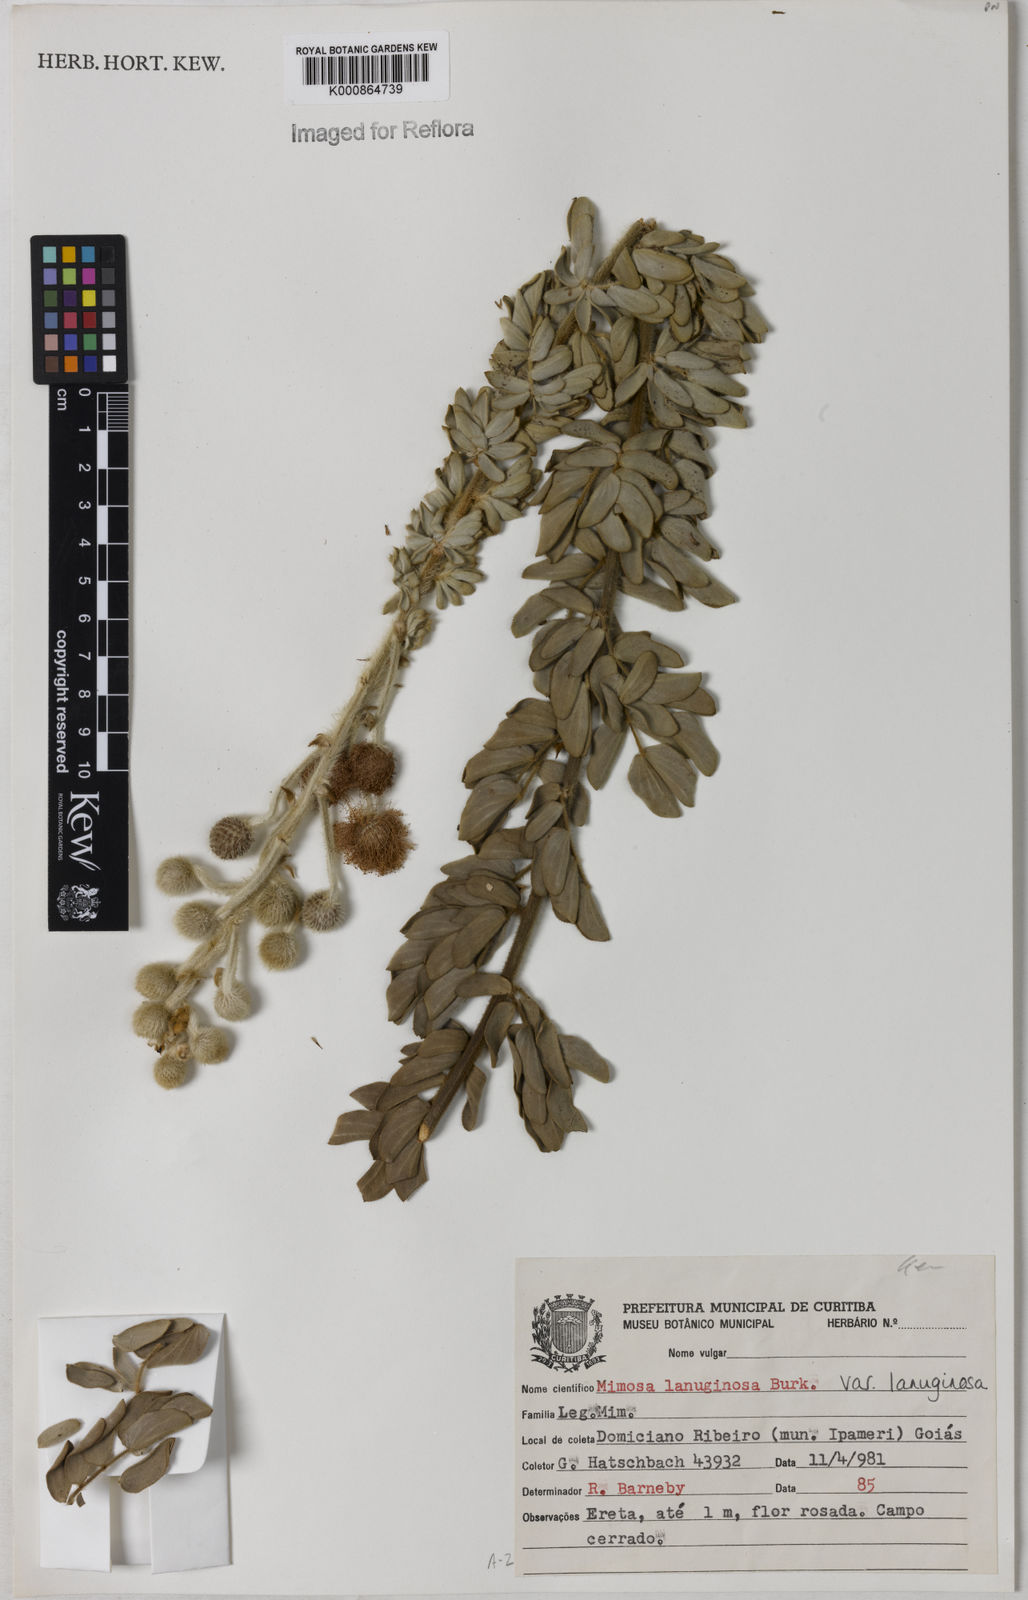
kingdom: Plantae
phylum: Tracheophyta
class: Magnoliopsida
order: Fabales
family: Fabaceae
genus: Mimosa
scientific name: Mimosa lanuginosa
